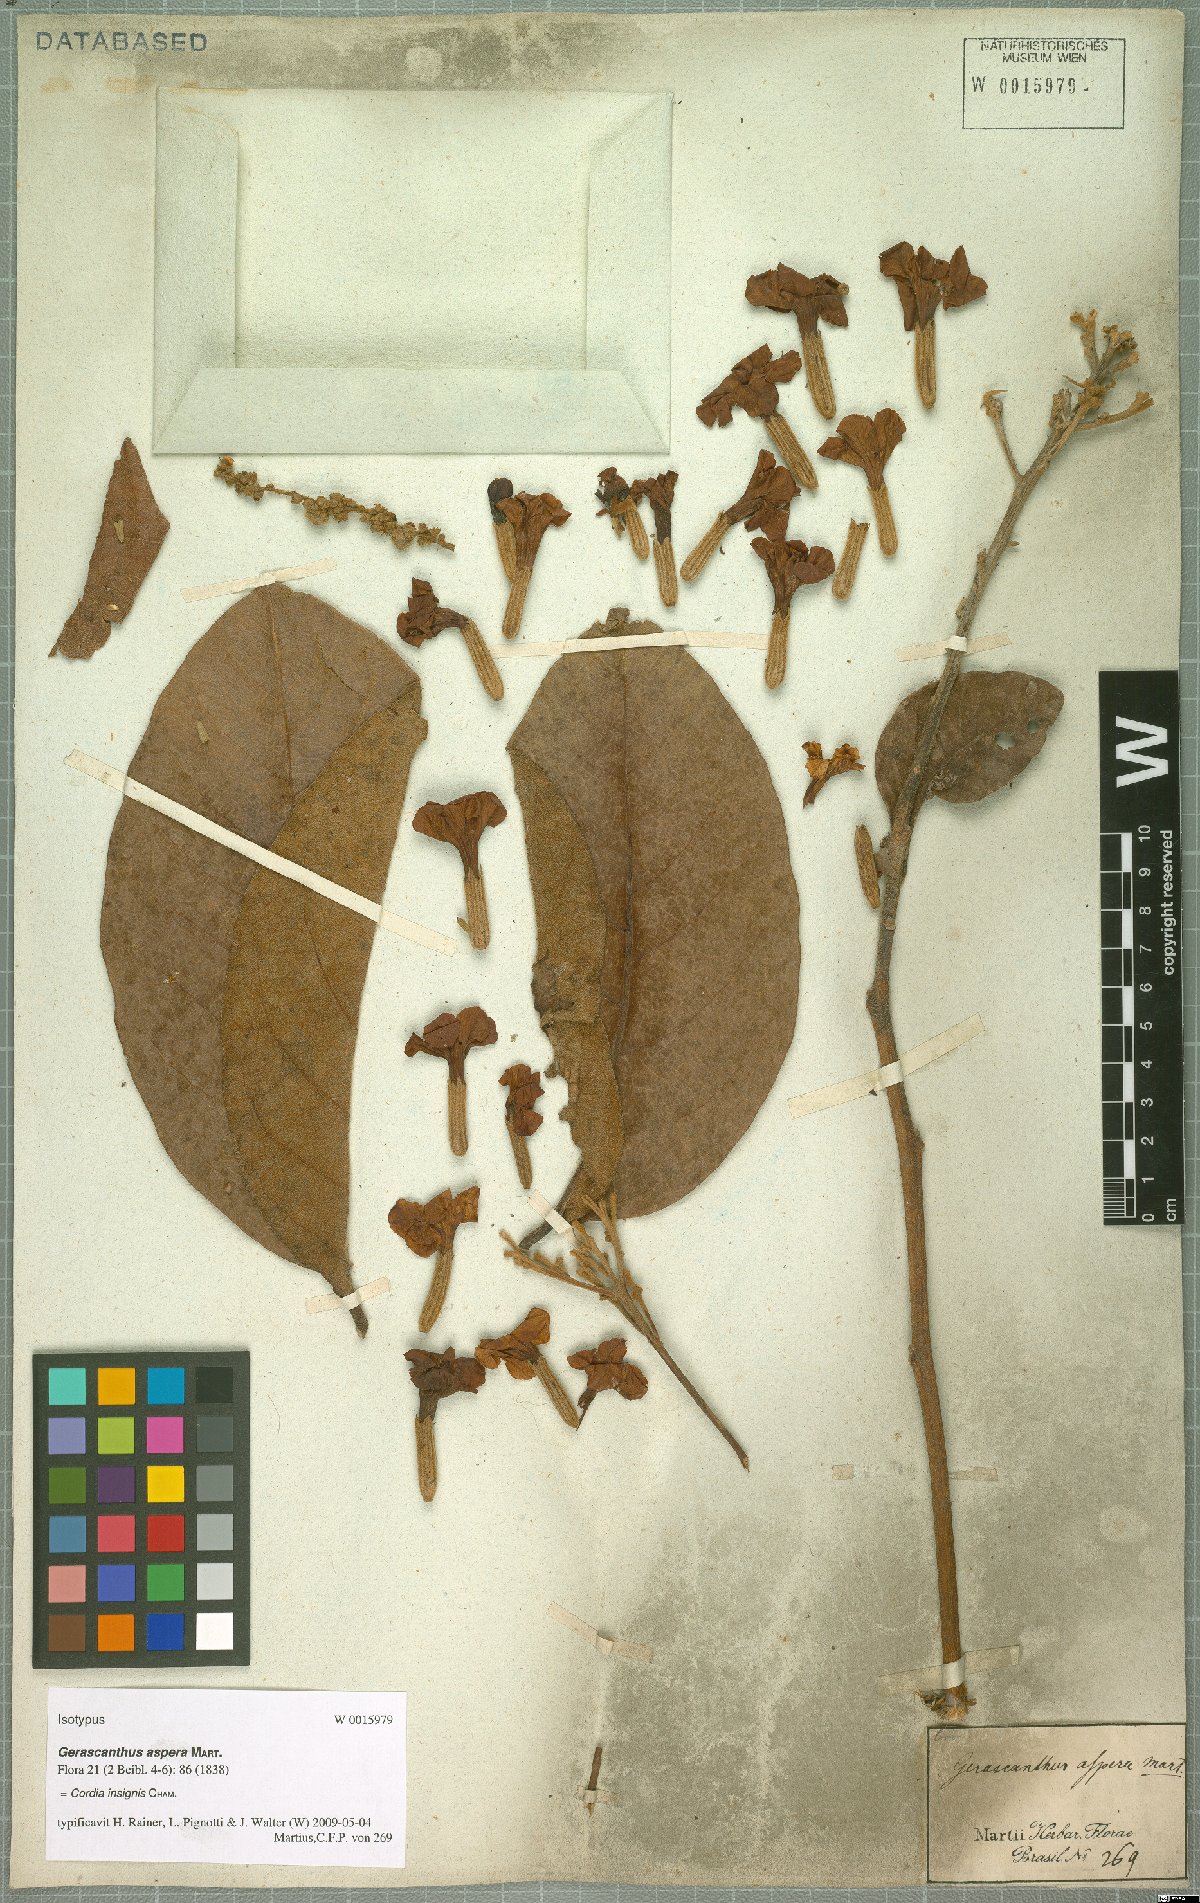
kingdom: Plantae
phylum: Tracheophyta
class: Magnoliopsida
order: Boraginales
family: Cordiaceae
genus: Cordia
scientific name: Cordia insignis
